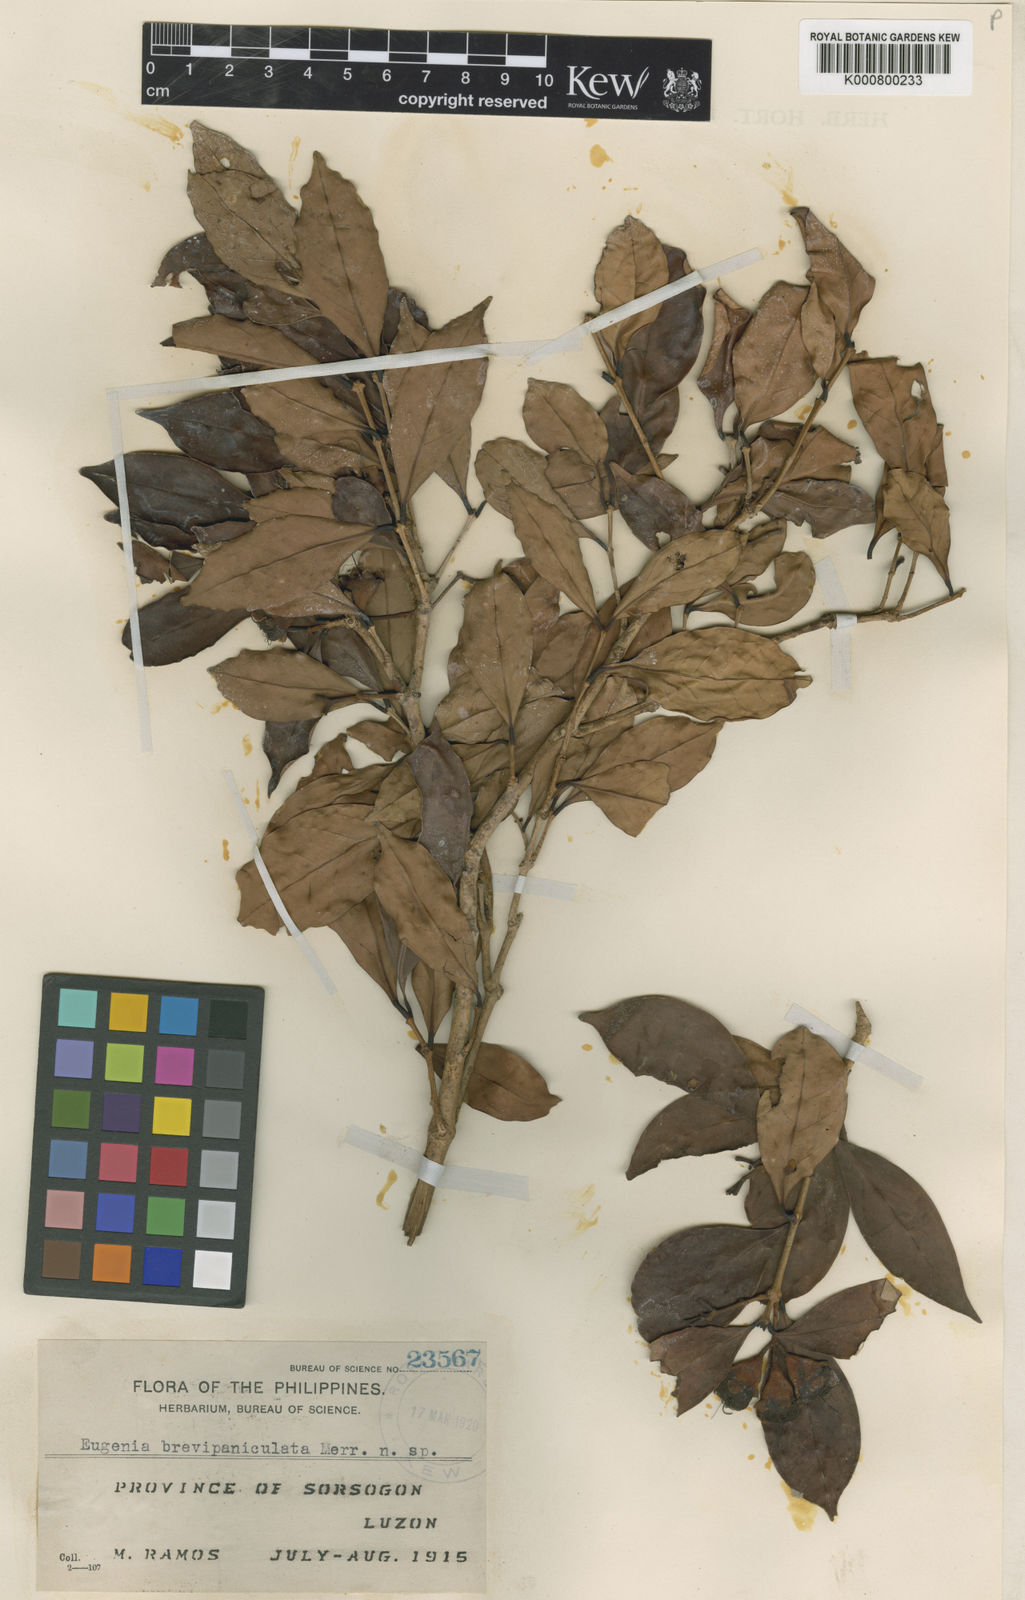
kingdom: Plantae
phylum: Tracheophyta
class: Magnoliopsida
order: Myrtales
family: Myrtaceae
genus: Syzygium
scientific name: Syzygium brevioperculatum
